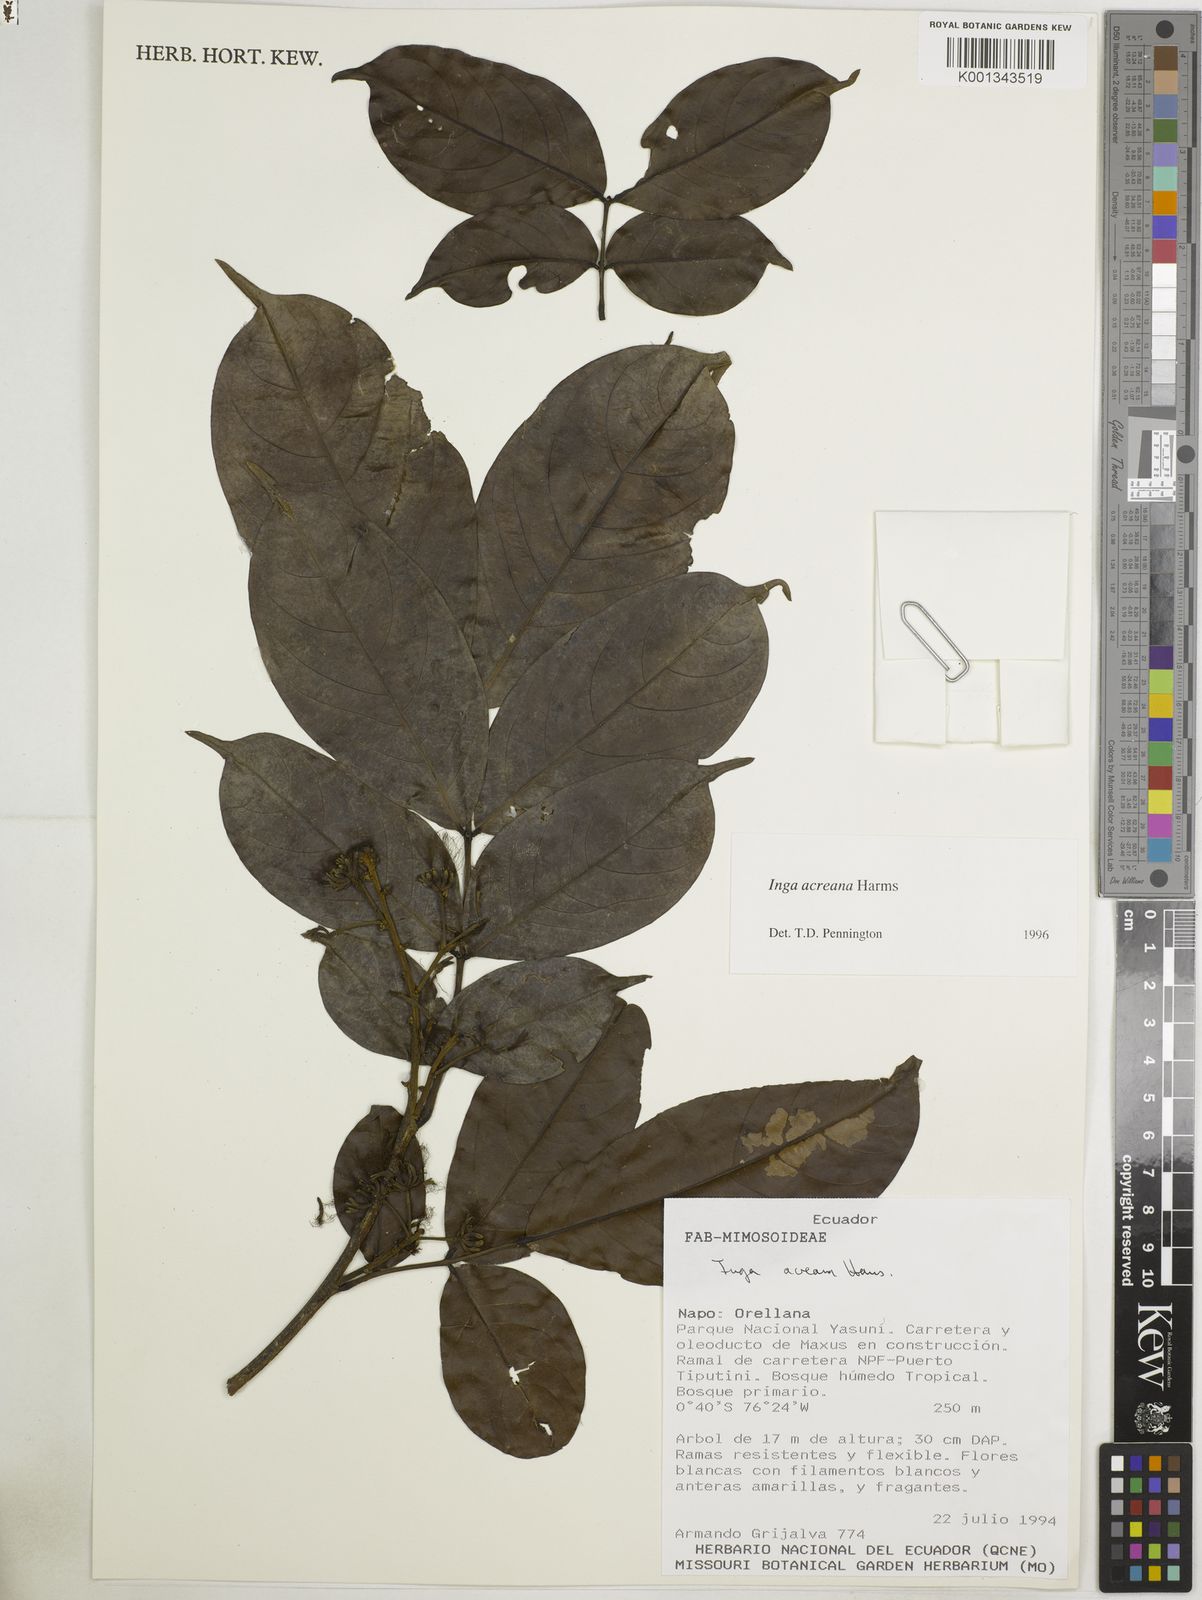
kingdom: Plantae
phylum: Tracheophyta
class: Magnoliopsida
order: Fabales
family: Fabaceae
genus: Inga
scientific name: Inga acreana
